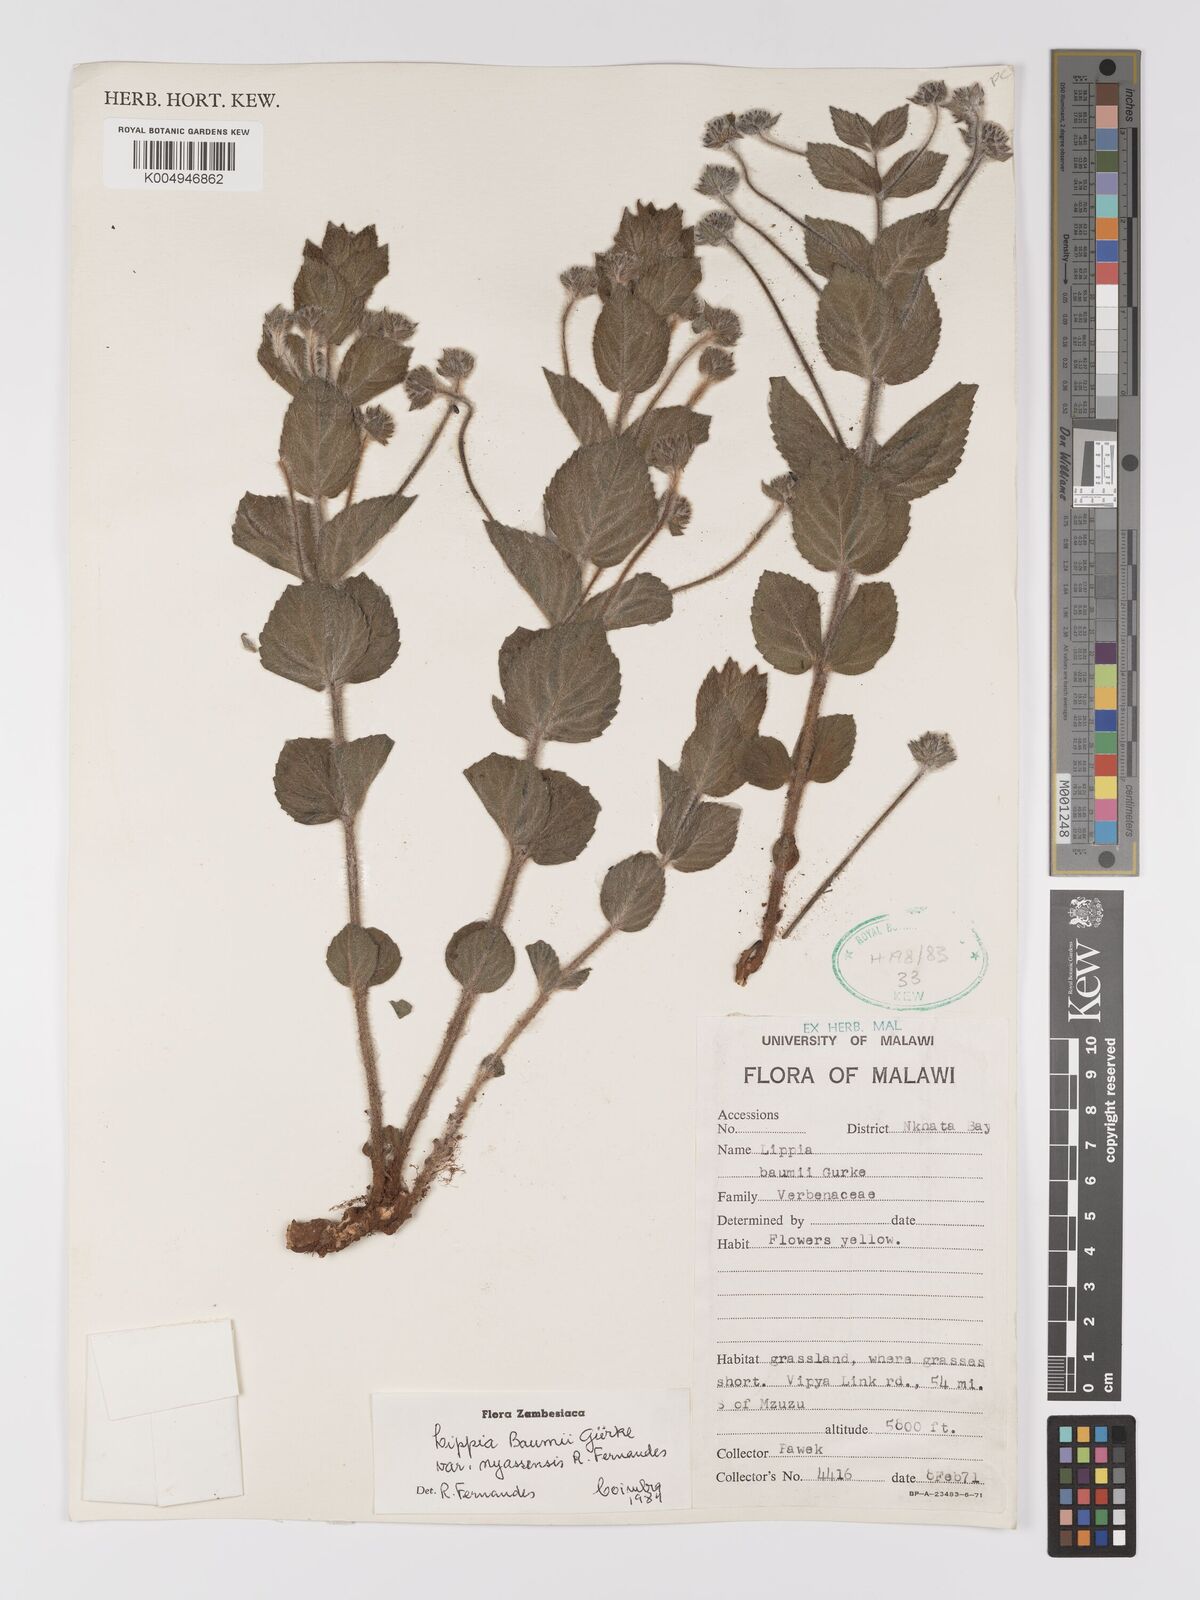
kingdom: Plantae
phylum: Tracheophyta
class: Magnoliopsida
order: Lamiales
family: Verbenaceae
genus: Lippia
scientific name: Lippia baumii
